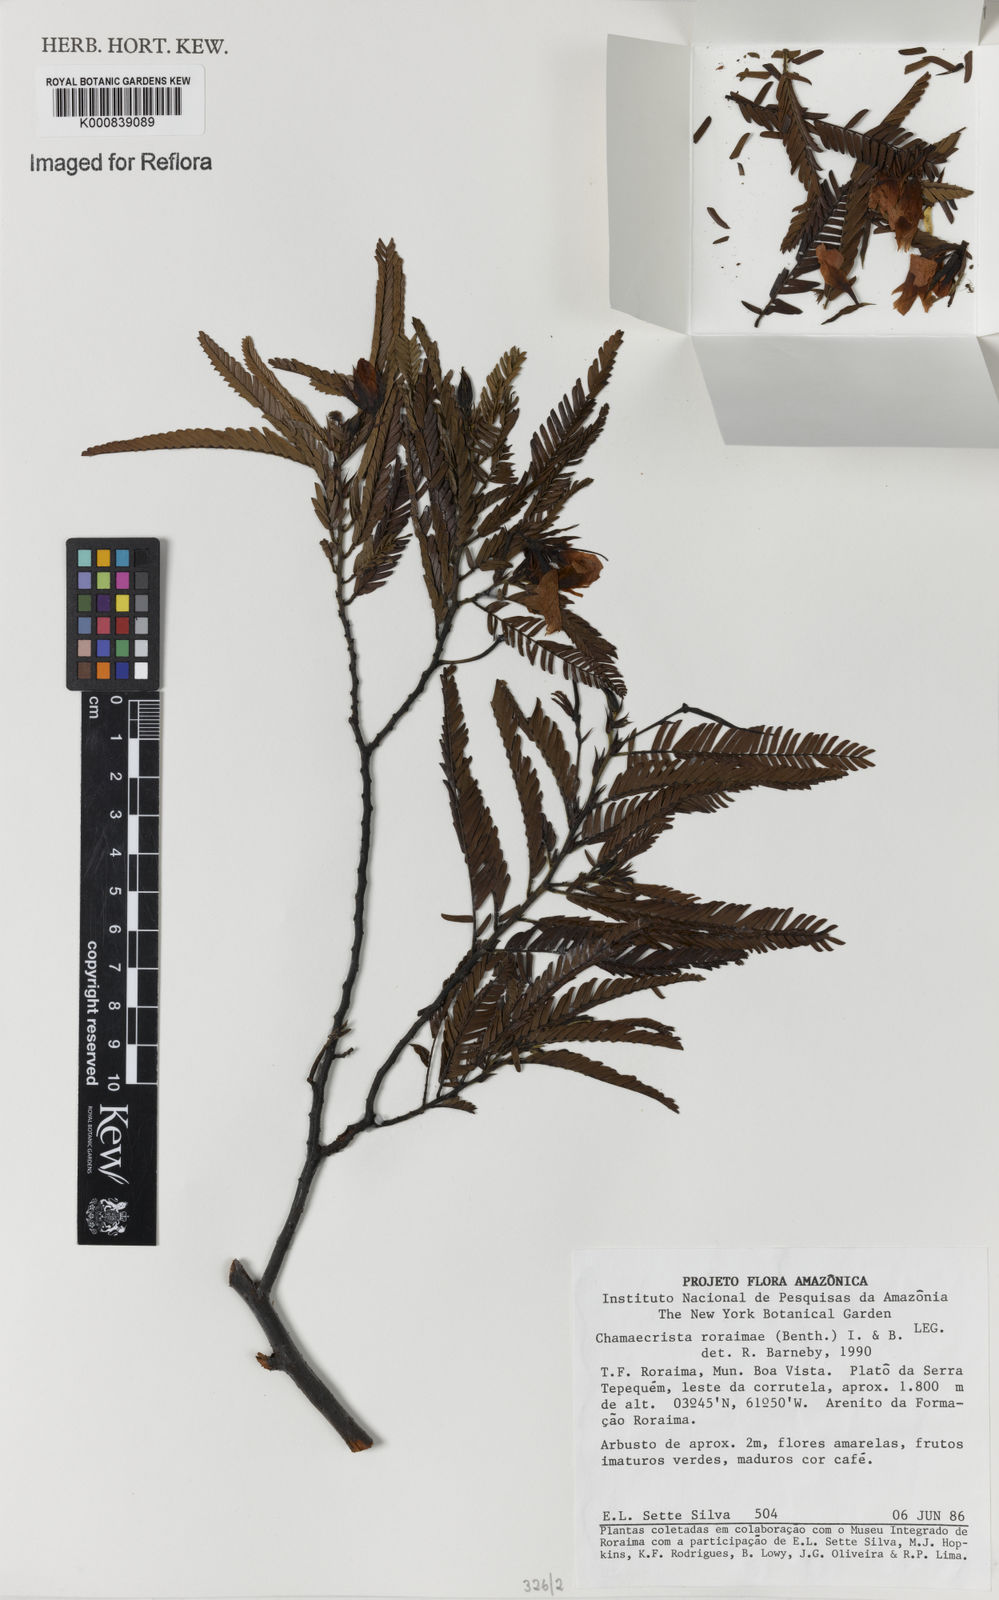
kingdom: Plantae
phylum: Tracheophyta
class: Magnoliopsida
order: Fabales
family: Fabaceae
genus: Chamaecrista
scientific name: Chamaecrista roraimae
